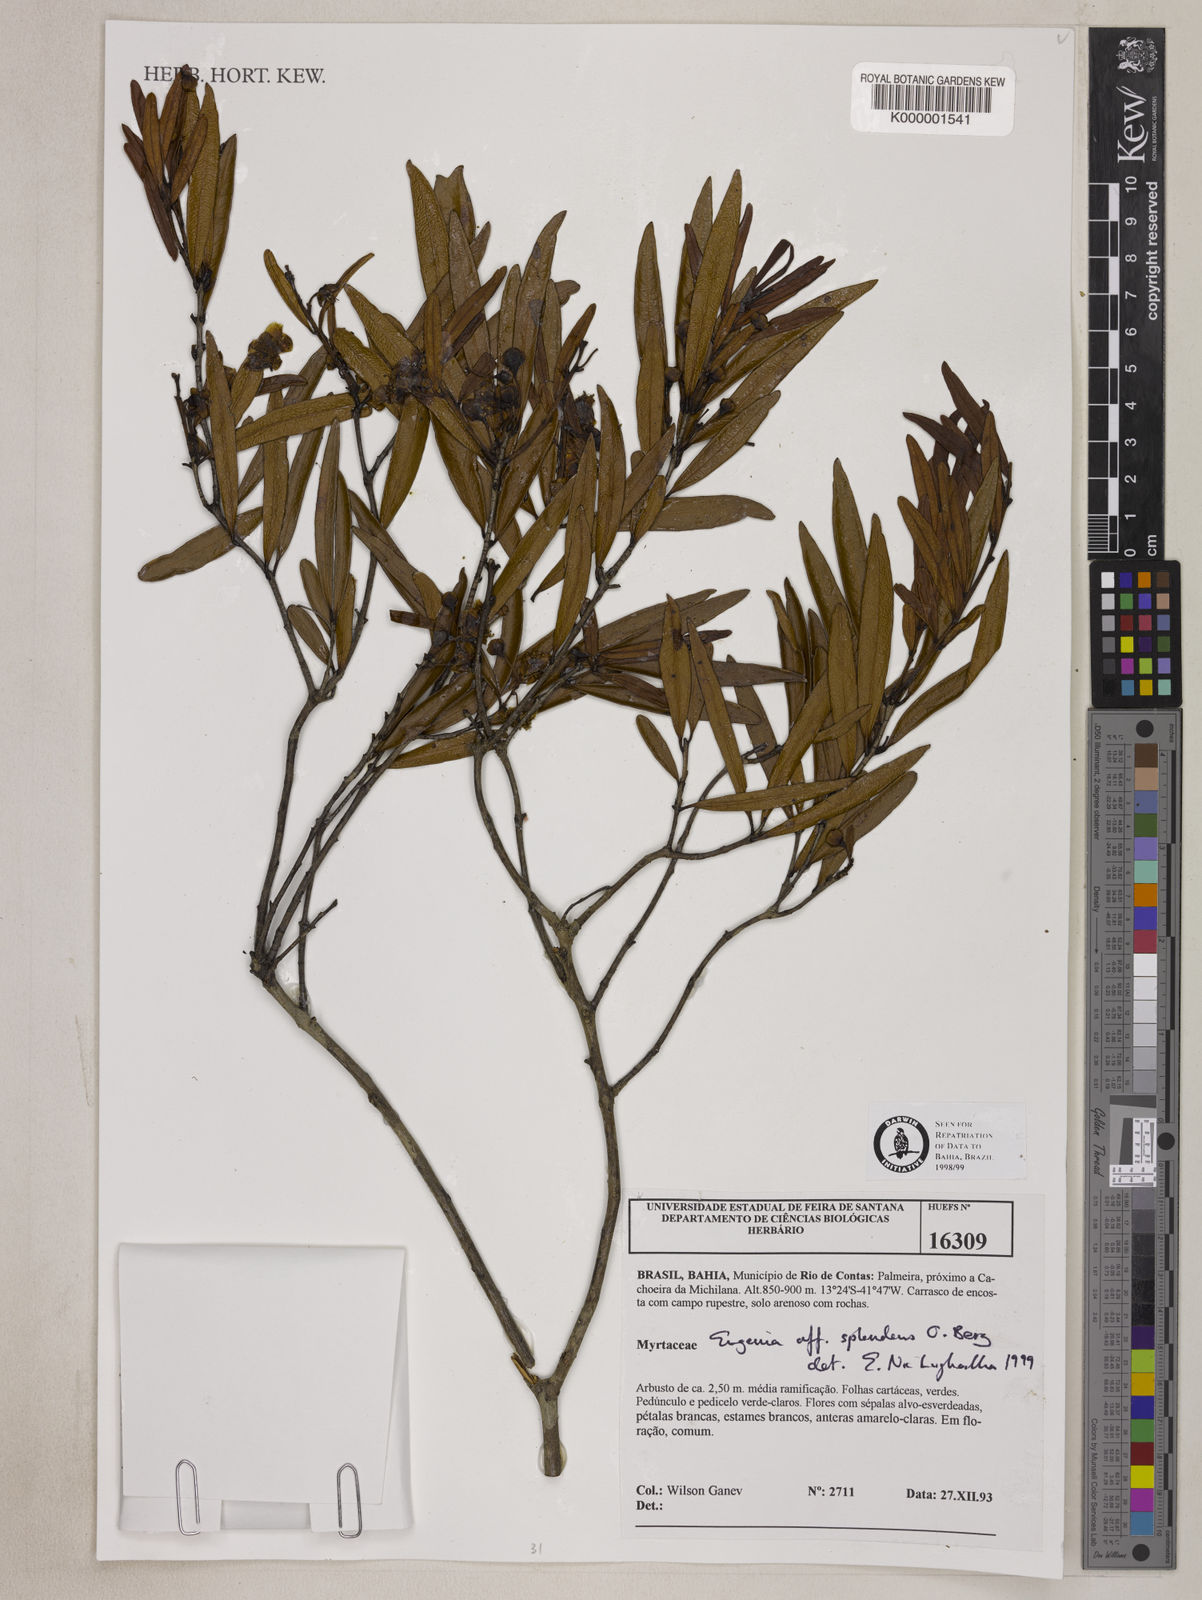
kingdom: Plantae
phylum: Tracheophyta
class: Magnoliopsida
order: Myrtales
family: Myrtaceae
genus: Eugenia
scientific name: Eugenia splendens
